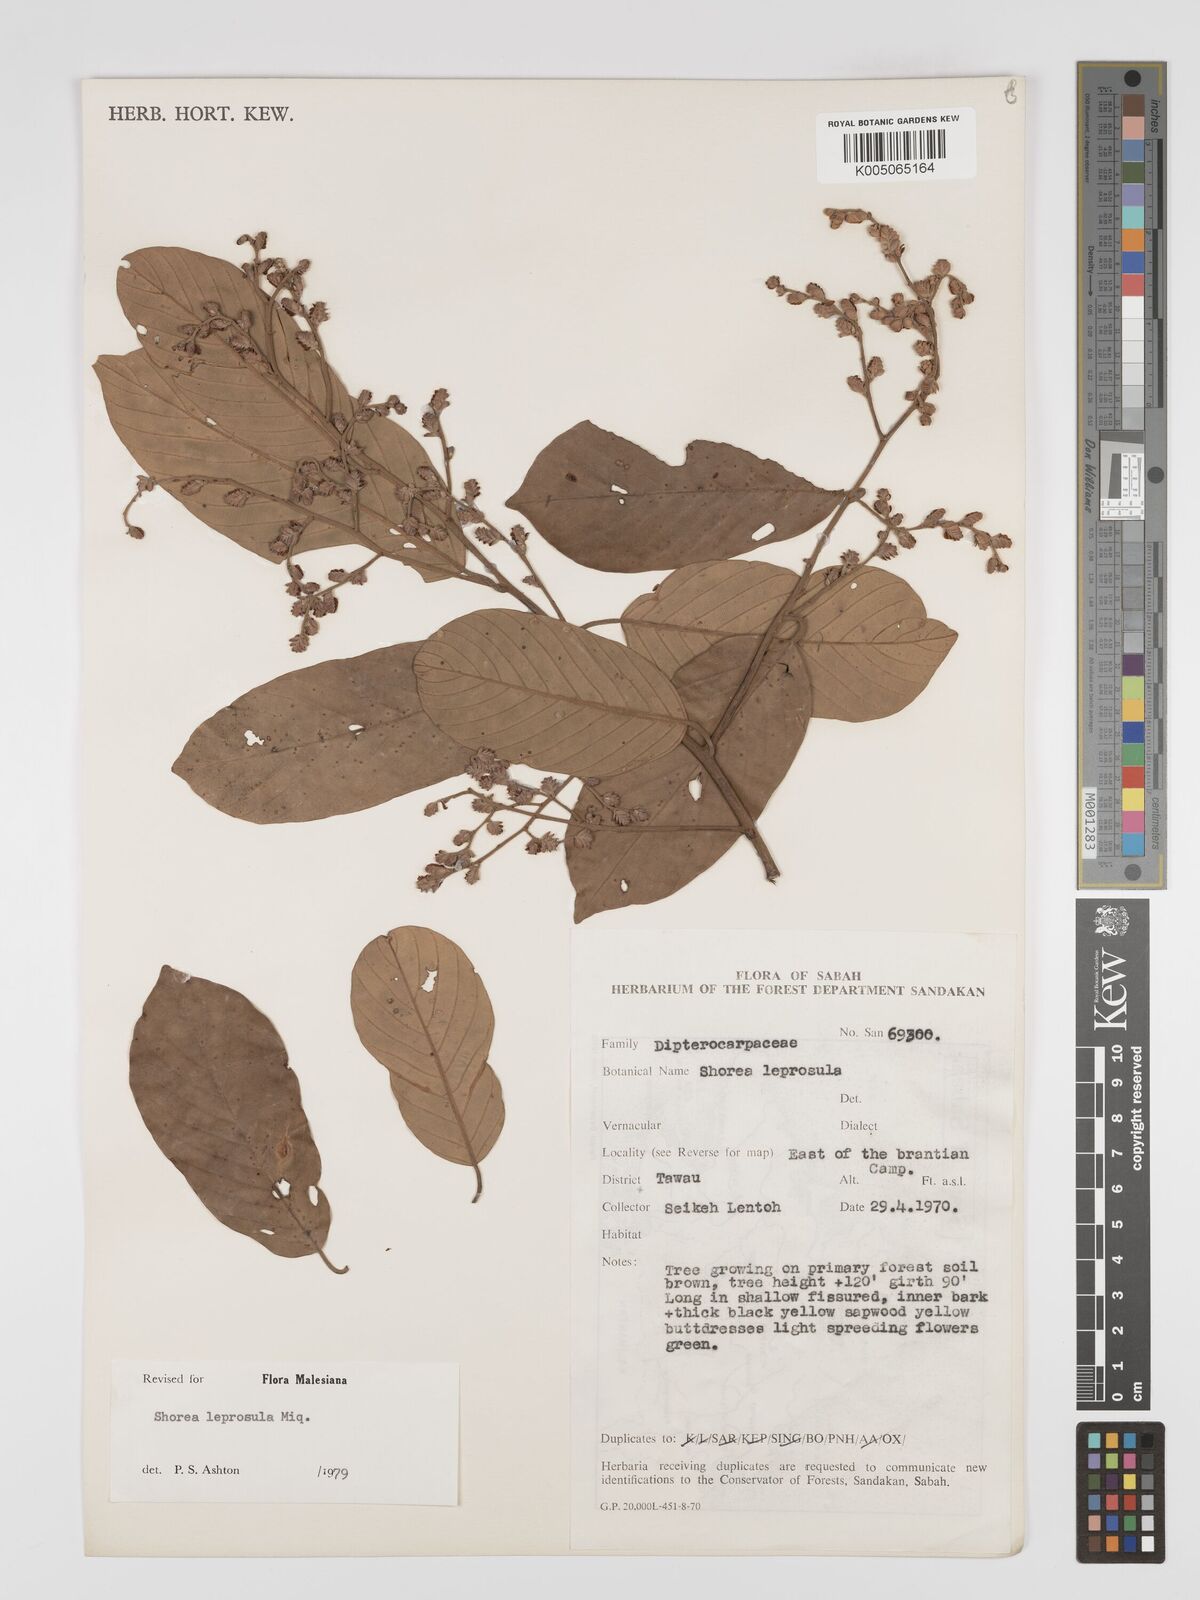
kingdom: Plantae
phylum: Tracheophyta
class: Magnoliopsida
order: Malvales
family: Dipterocarpaceae
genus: Shorea
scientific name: Shorea leprosula
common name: Light red meranti
